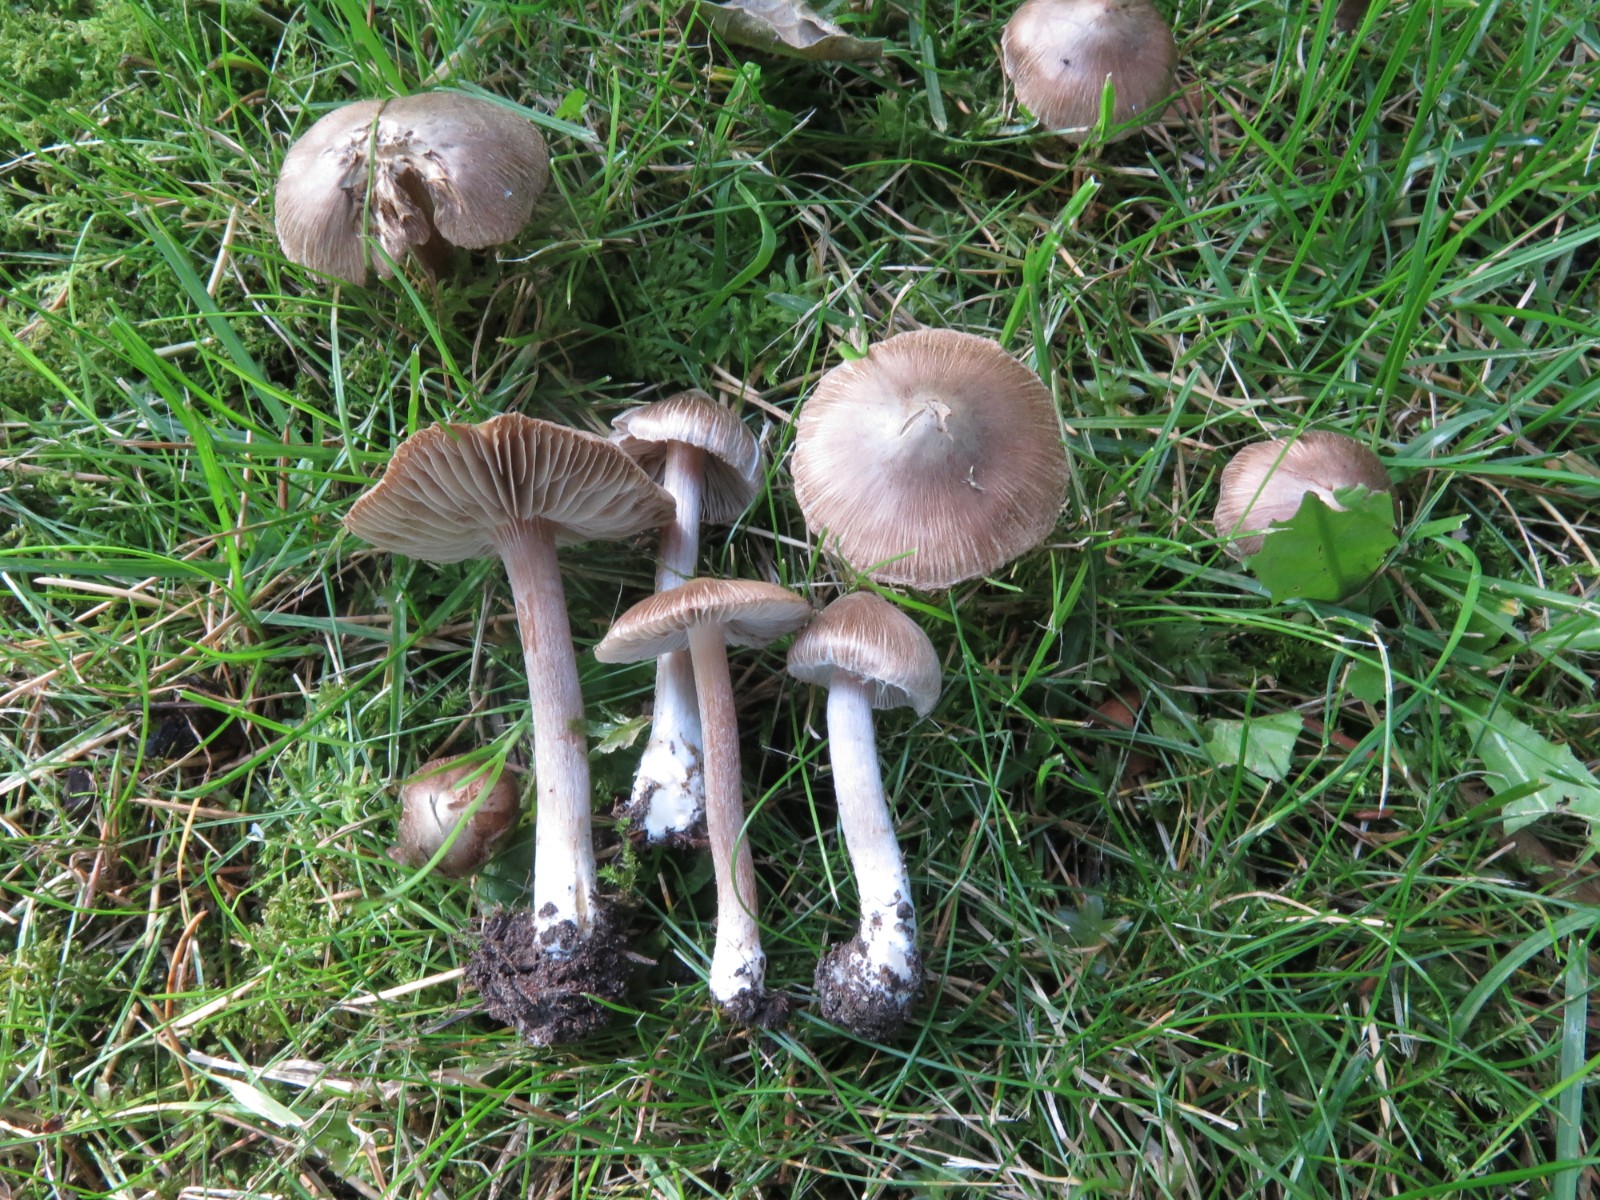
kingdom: Fungi
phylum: Basidiomycota
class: Agaricomycetes
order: Agaricales
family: Inocybaceae
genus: Inocybe
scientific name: Inocybe
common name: trævlhat
